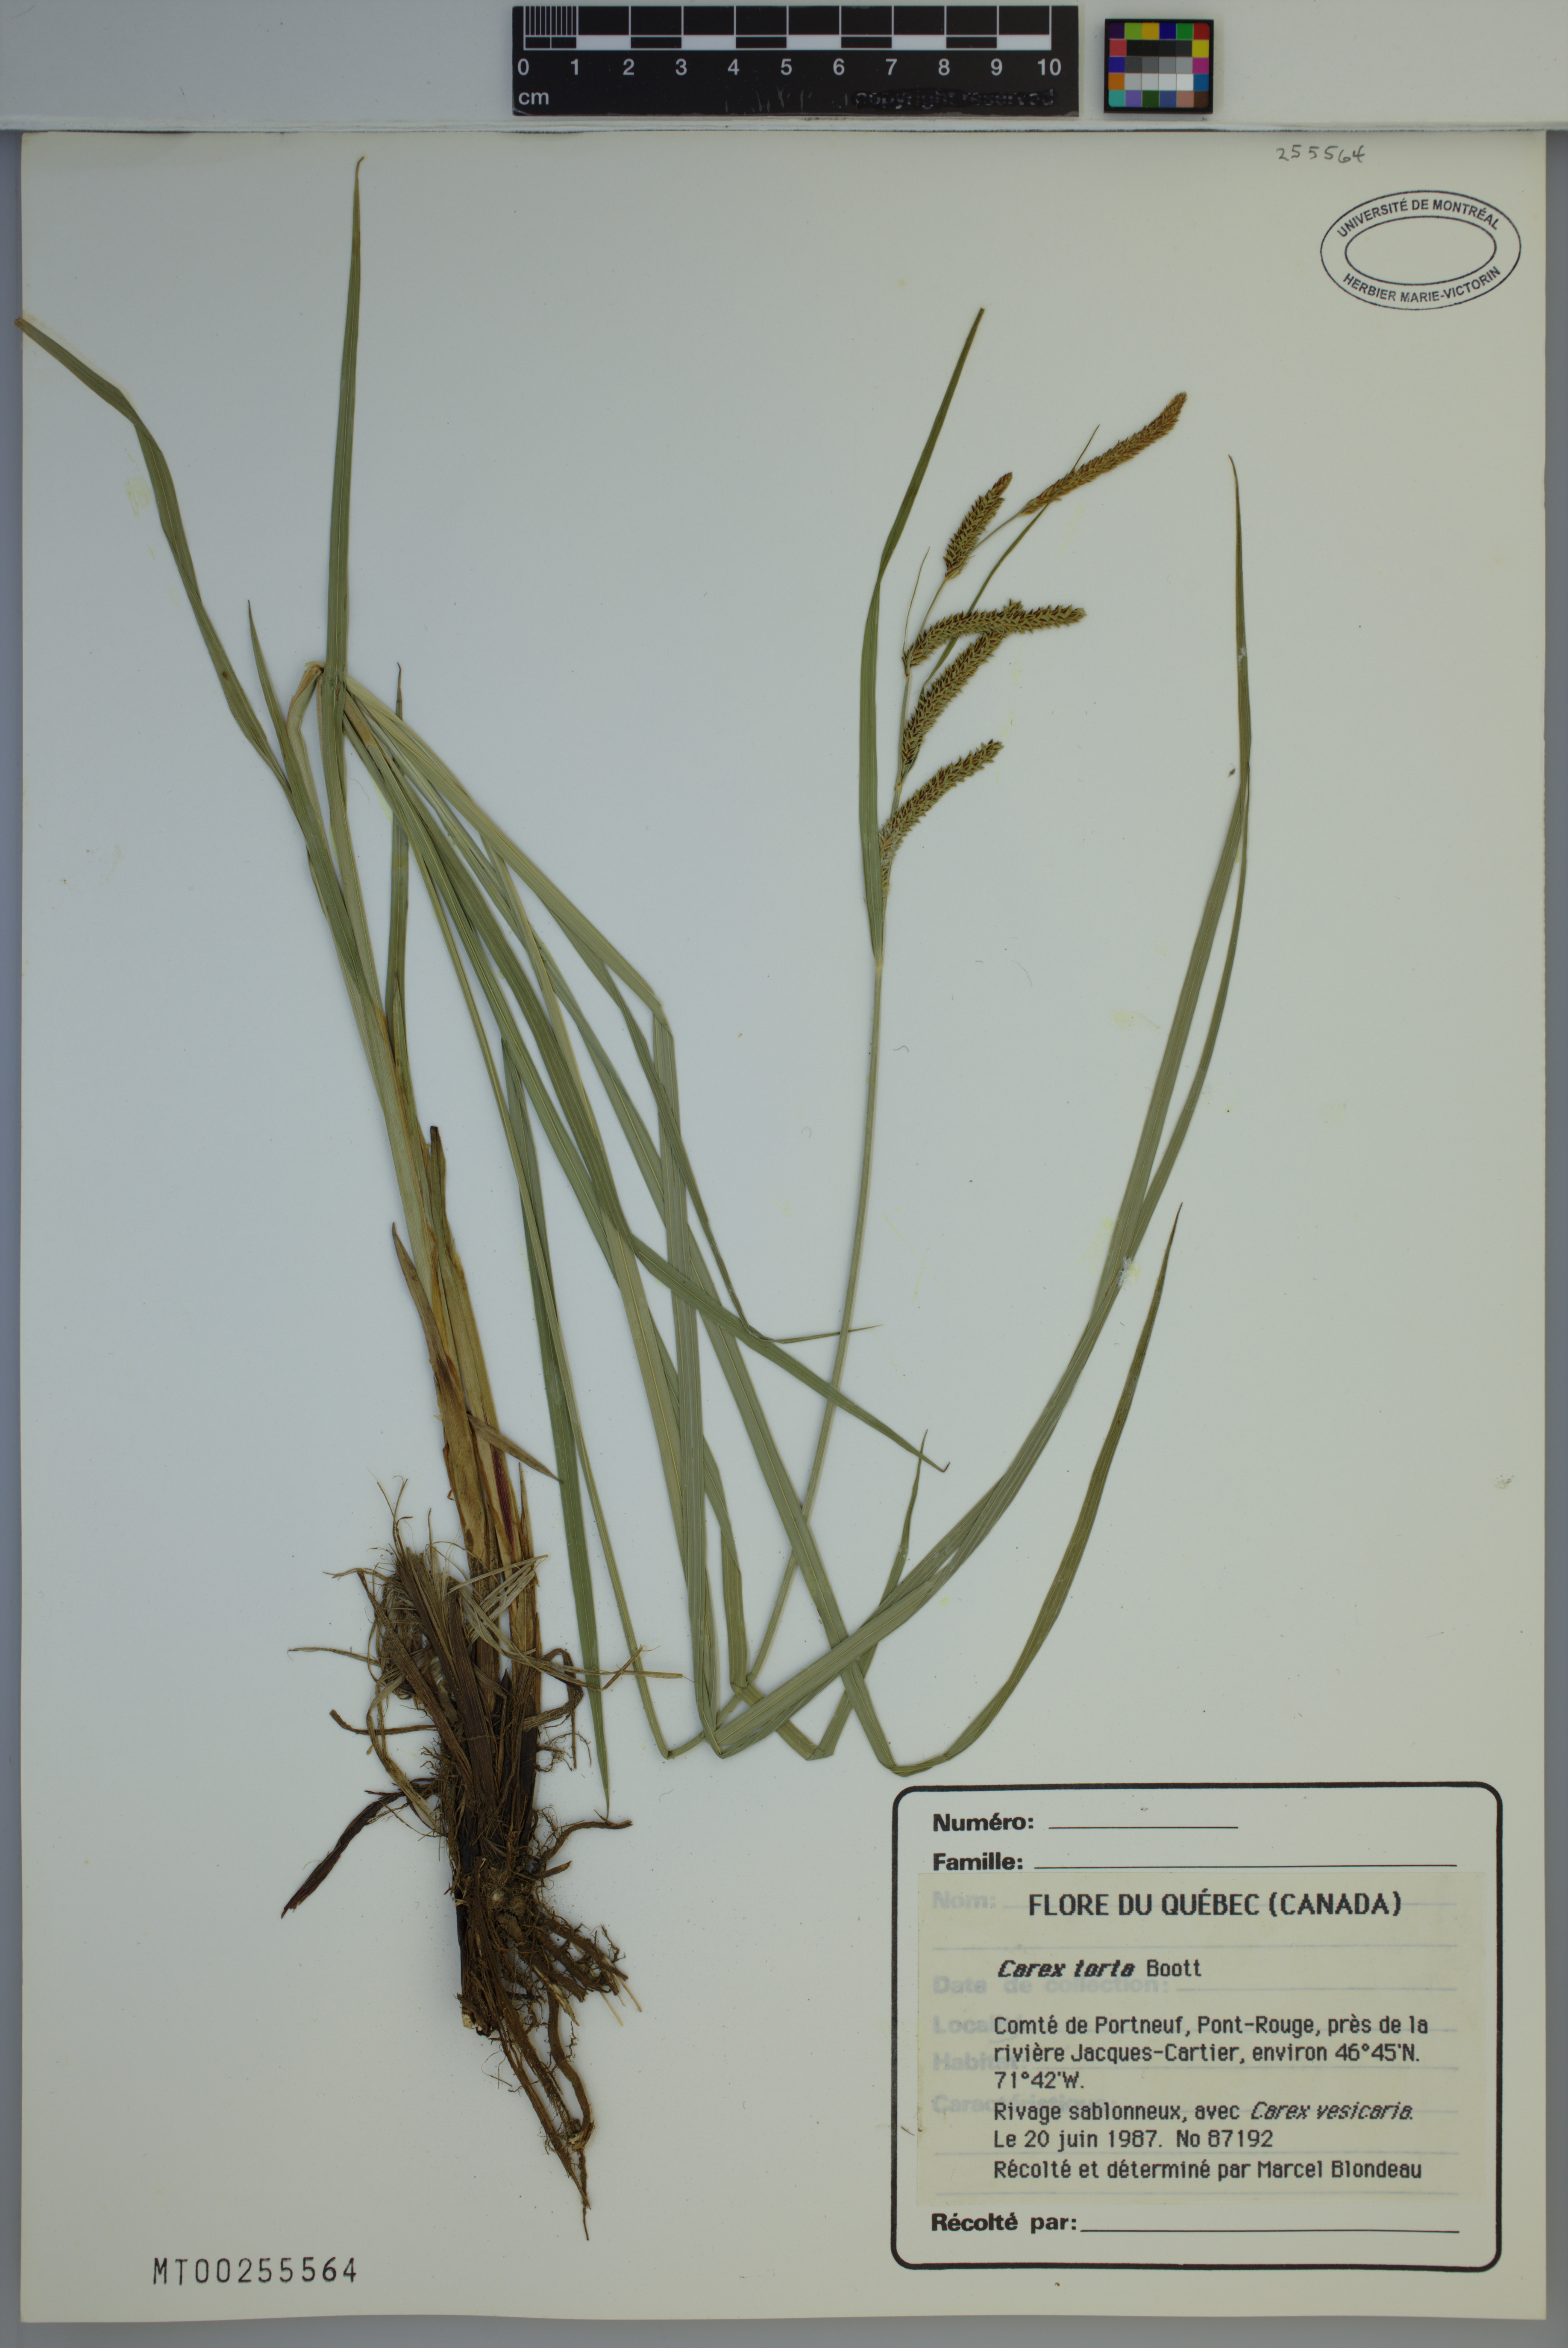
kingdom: Plantae
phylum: Tracheophyta
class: Liliopsida
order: Poales
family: Cyperaceae
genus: Carex
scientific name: Carex torta
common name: Twisted sedge
